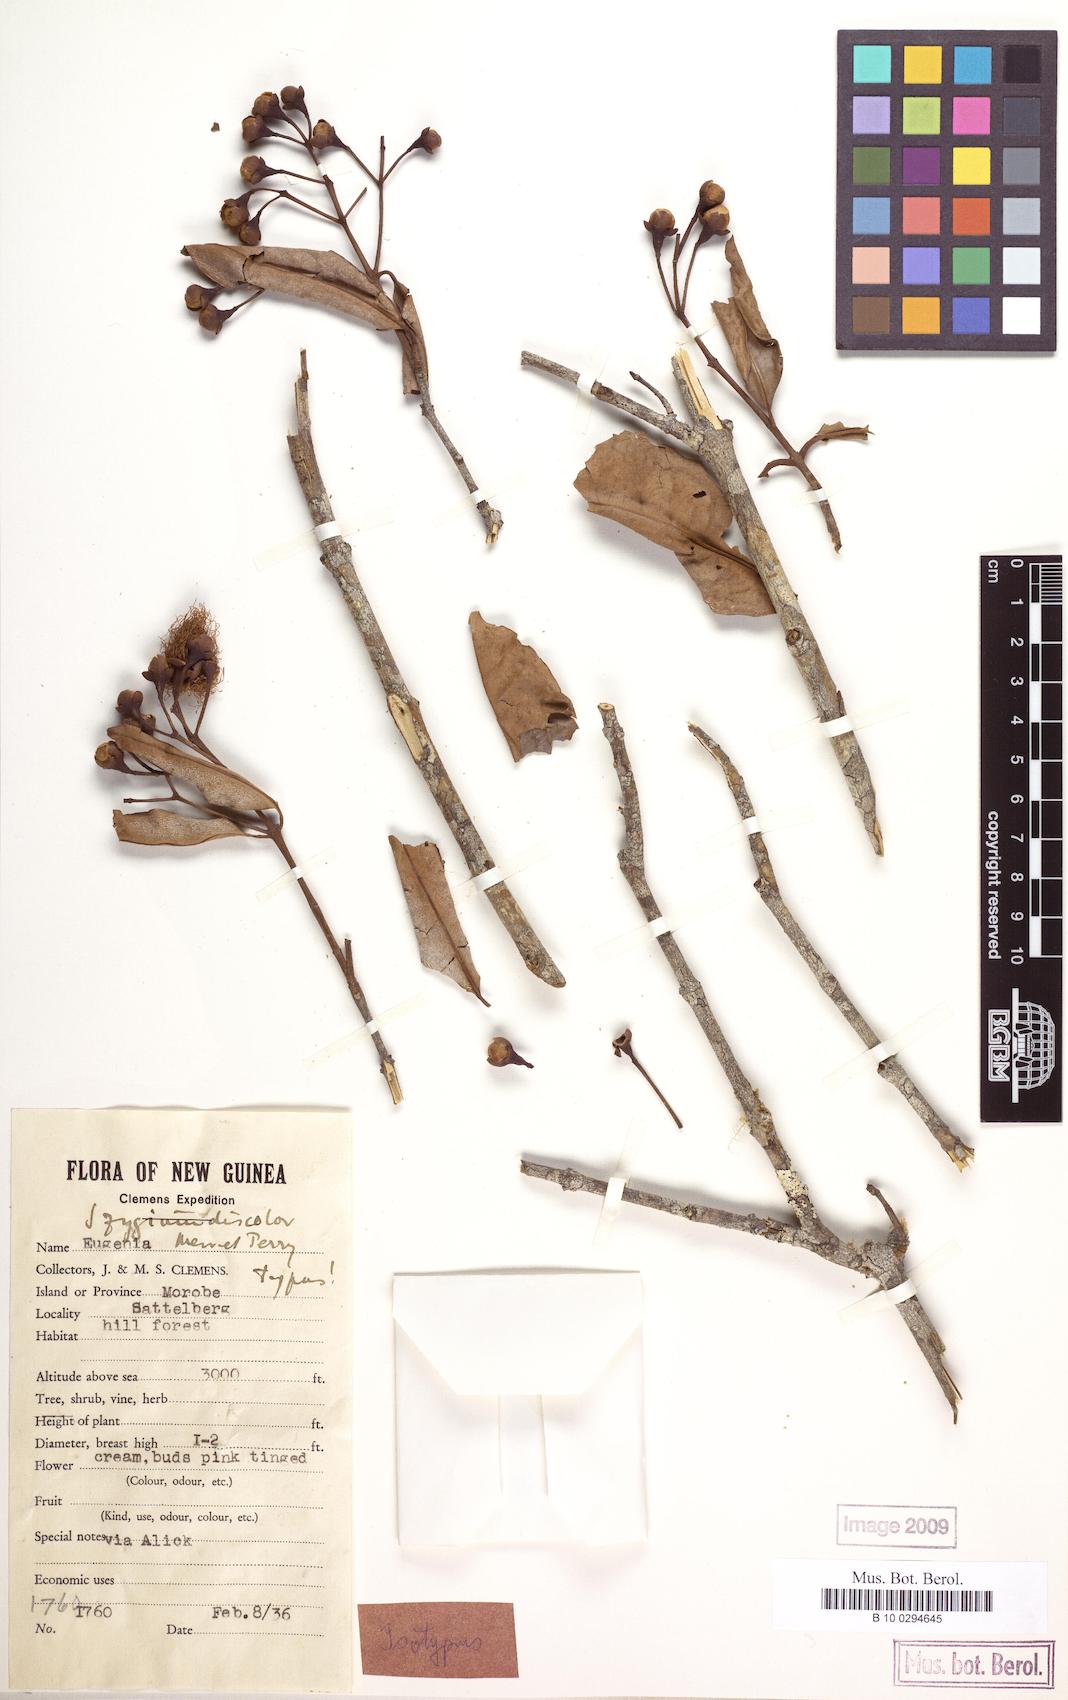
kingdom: Plantae
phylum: Tracheophyta
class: Magnoliopsida
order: Myrtales
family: Myrtaceae
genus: Syzygium
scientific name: Syzygium pergamaceum
